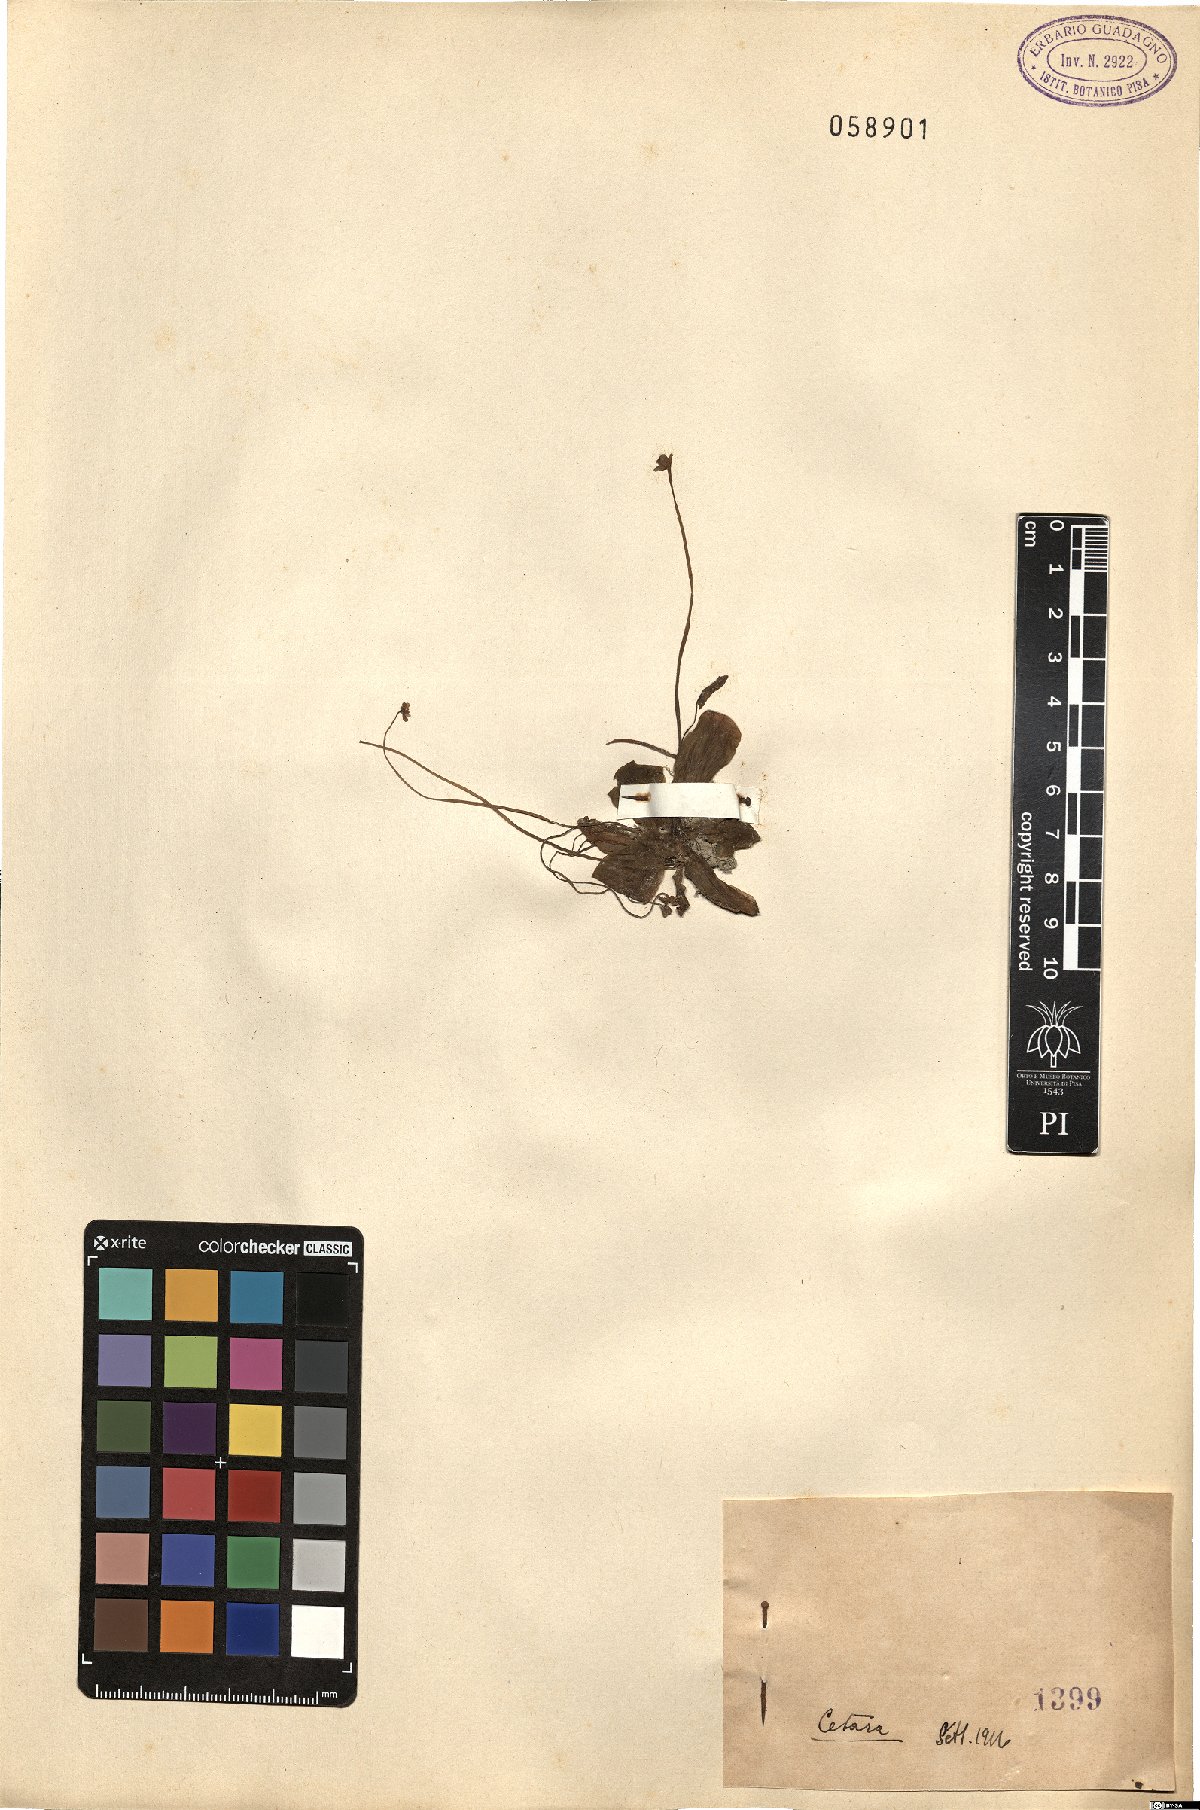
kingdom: Plantae
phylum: Tracheophyta
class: Magnoliopsida
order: Lamiales
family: Lentibulariaceae
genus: Pinguicula
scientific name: Pinguicula
